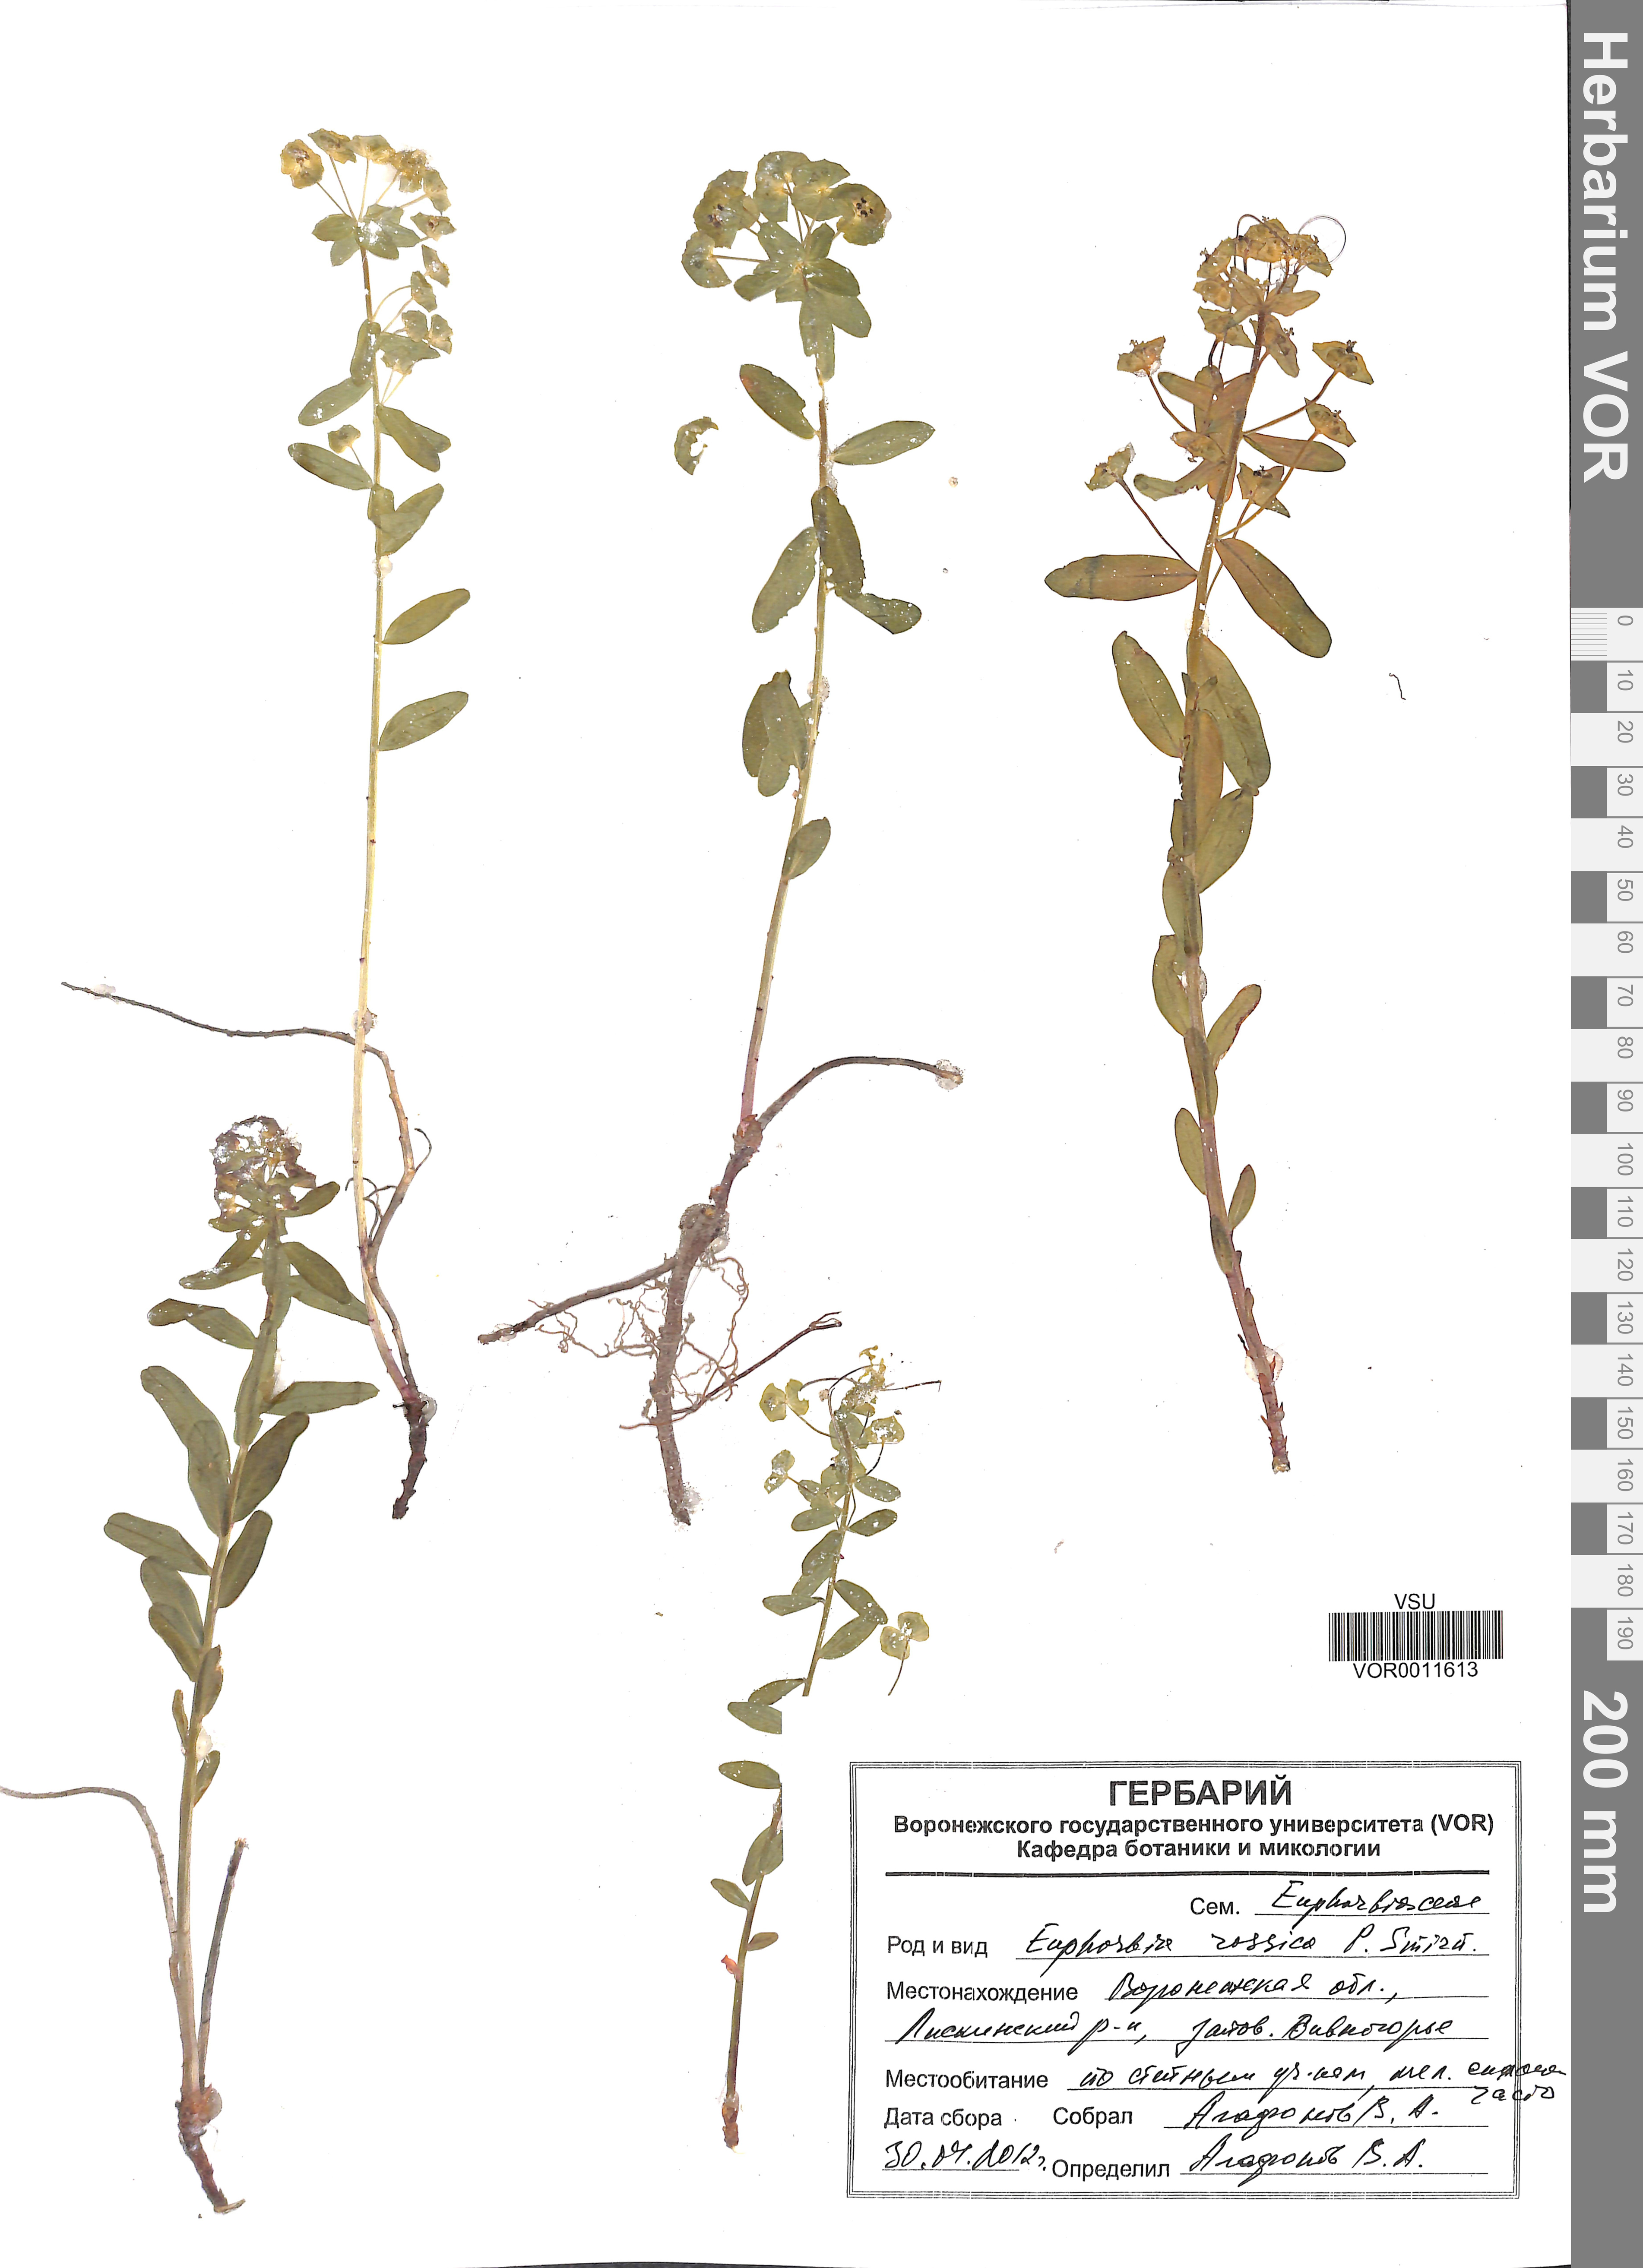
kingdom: Plantae
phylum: Tracheophyta
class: Magnoliopsida
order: Malpighiales
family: Euphorbiaceae
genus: Euphorbia
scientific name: Euphorbia esula
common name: Leafy spurge
